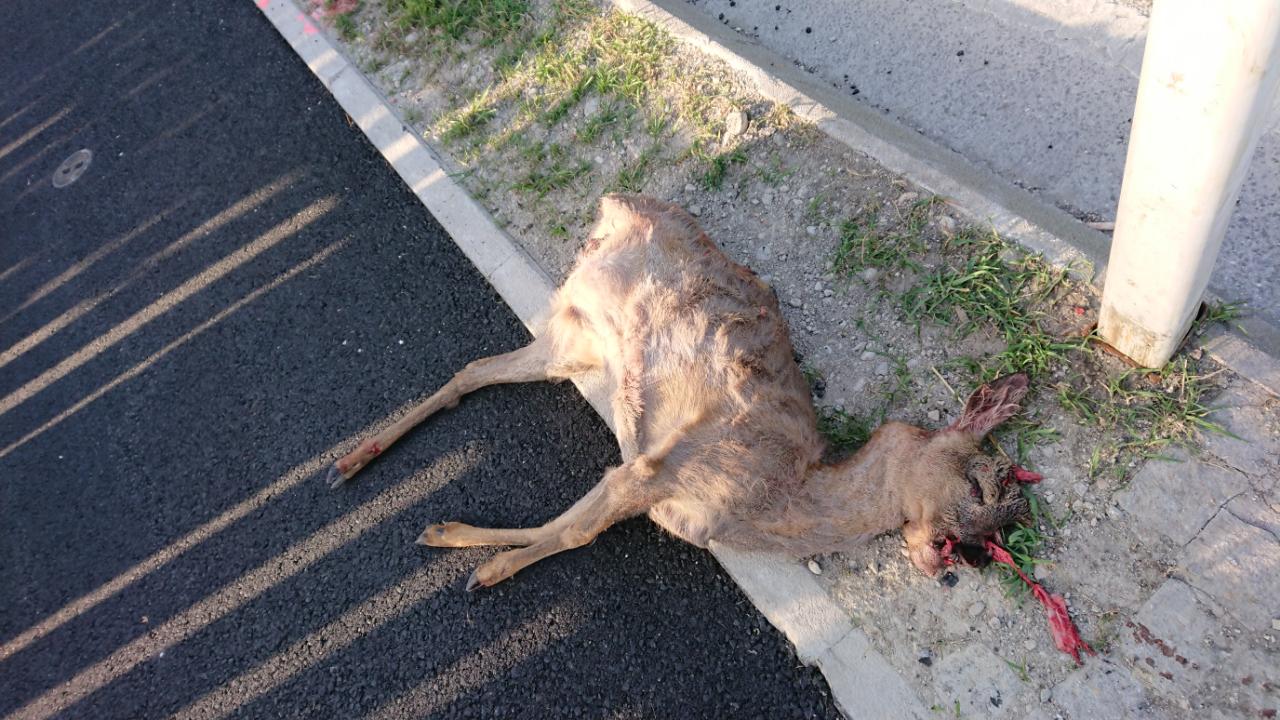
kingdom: Animalia
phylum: Chordata
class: Mammalia
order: Artiodactyla
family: Cervidae
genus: Capreolus
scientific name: Capreolus capreolus
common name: Western roe deer
